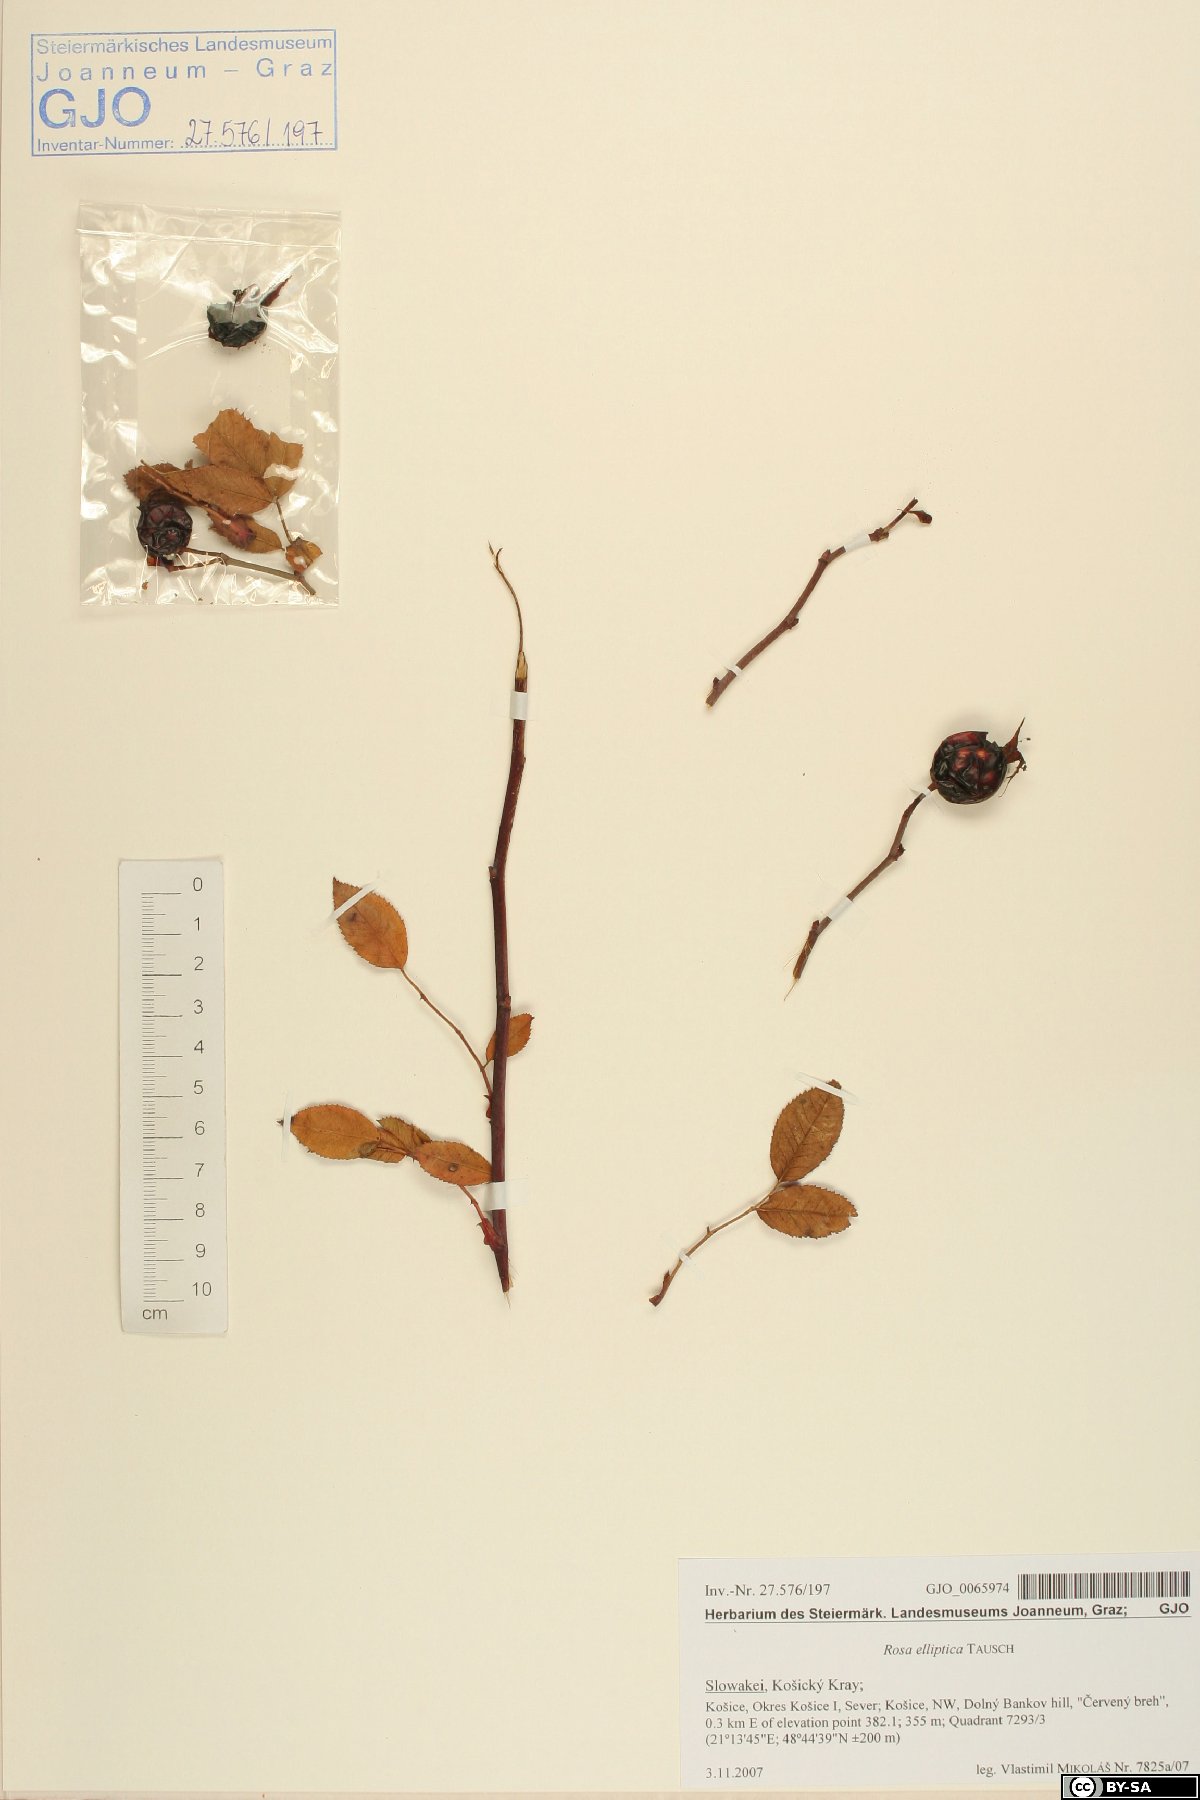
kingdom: Plantae
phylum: Tracheophyta
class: Magnoliopsida
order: Rosales
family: Rosaceae
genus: Rosa
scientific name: Rosa inodora
